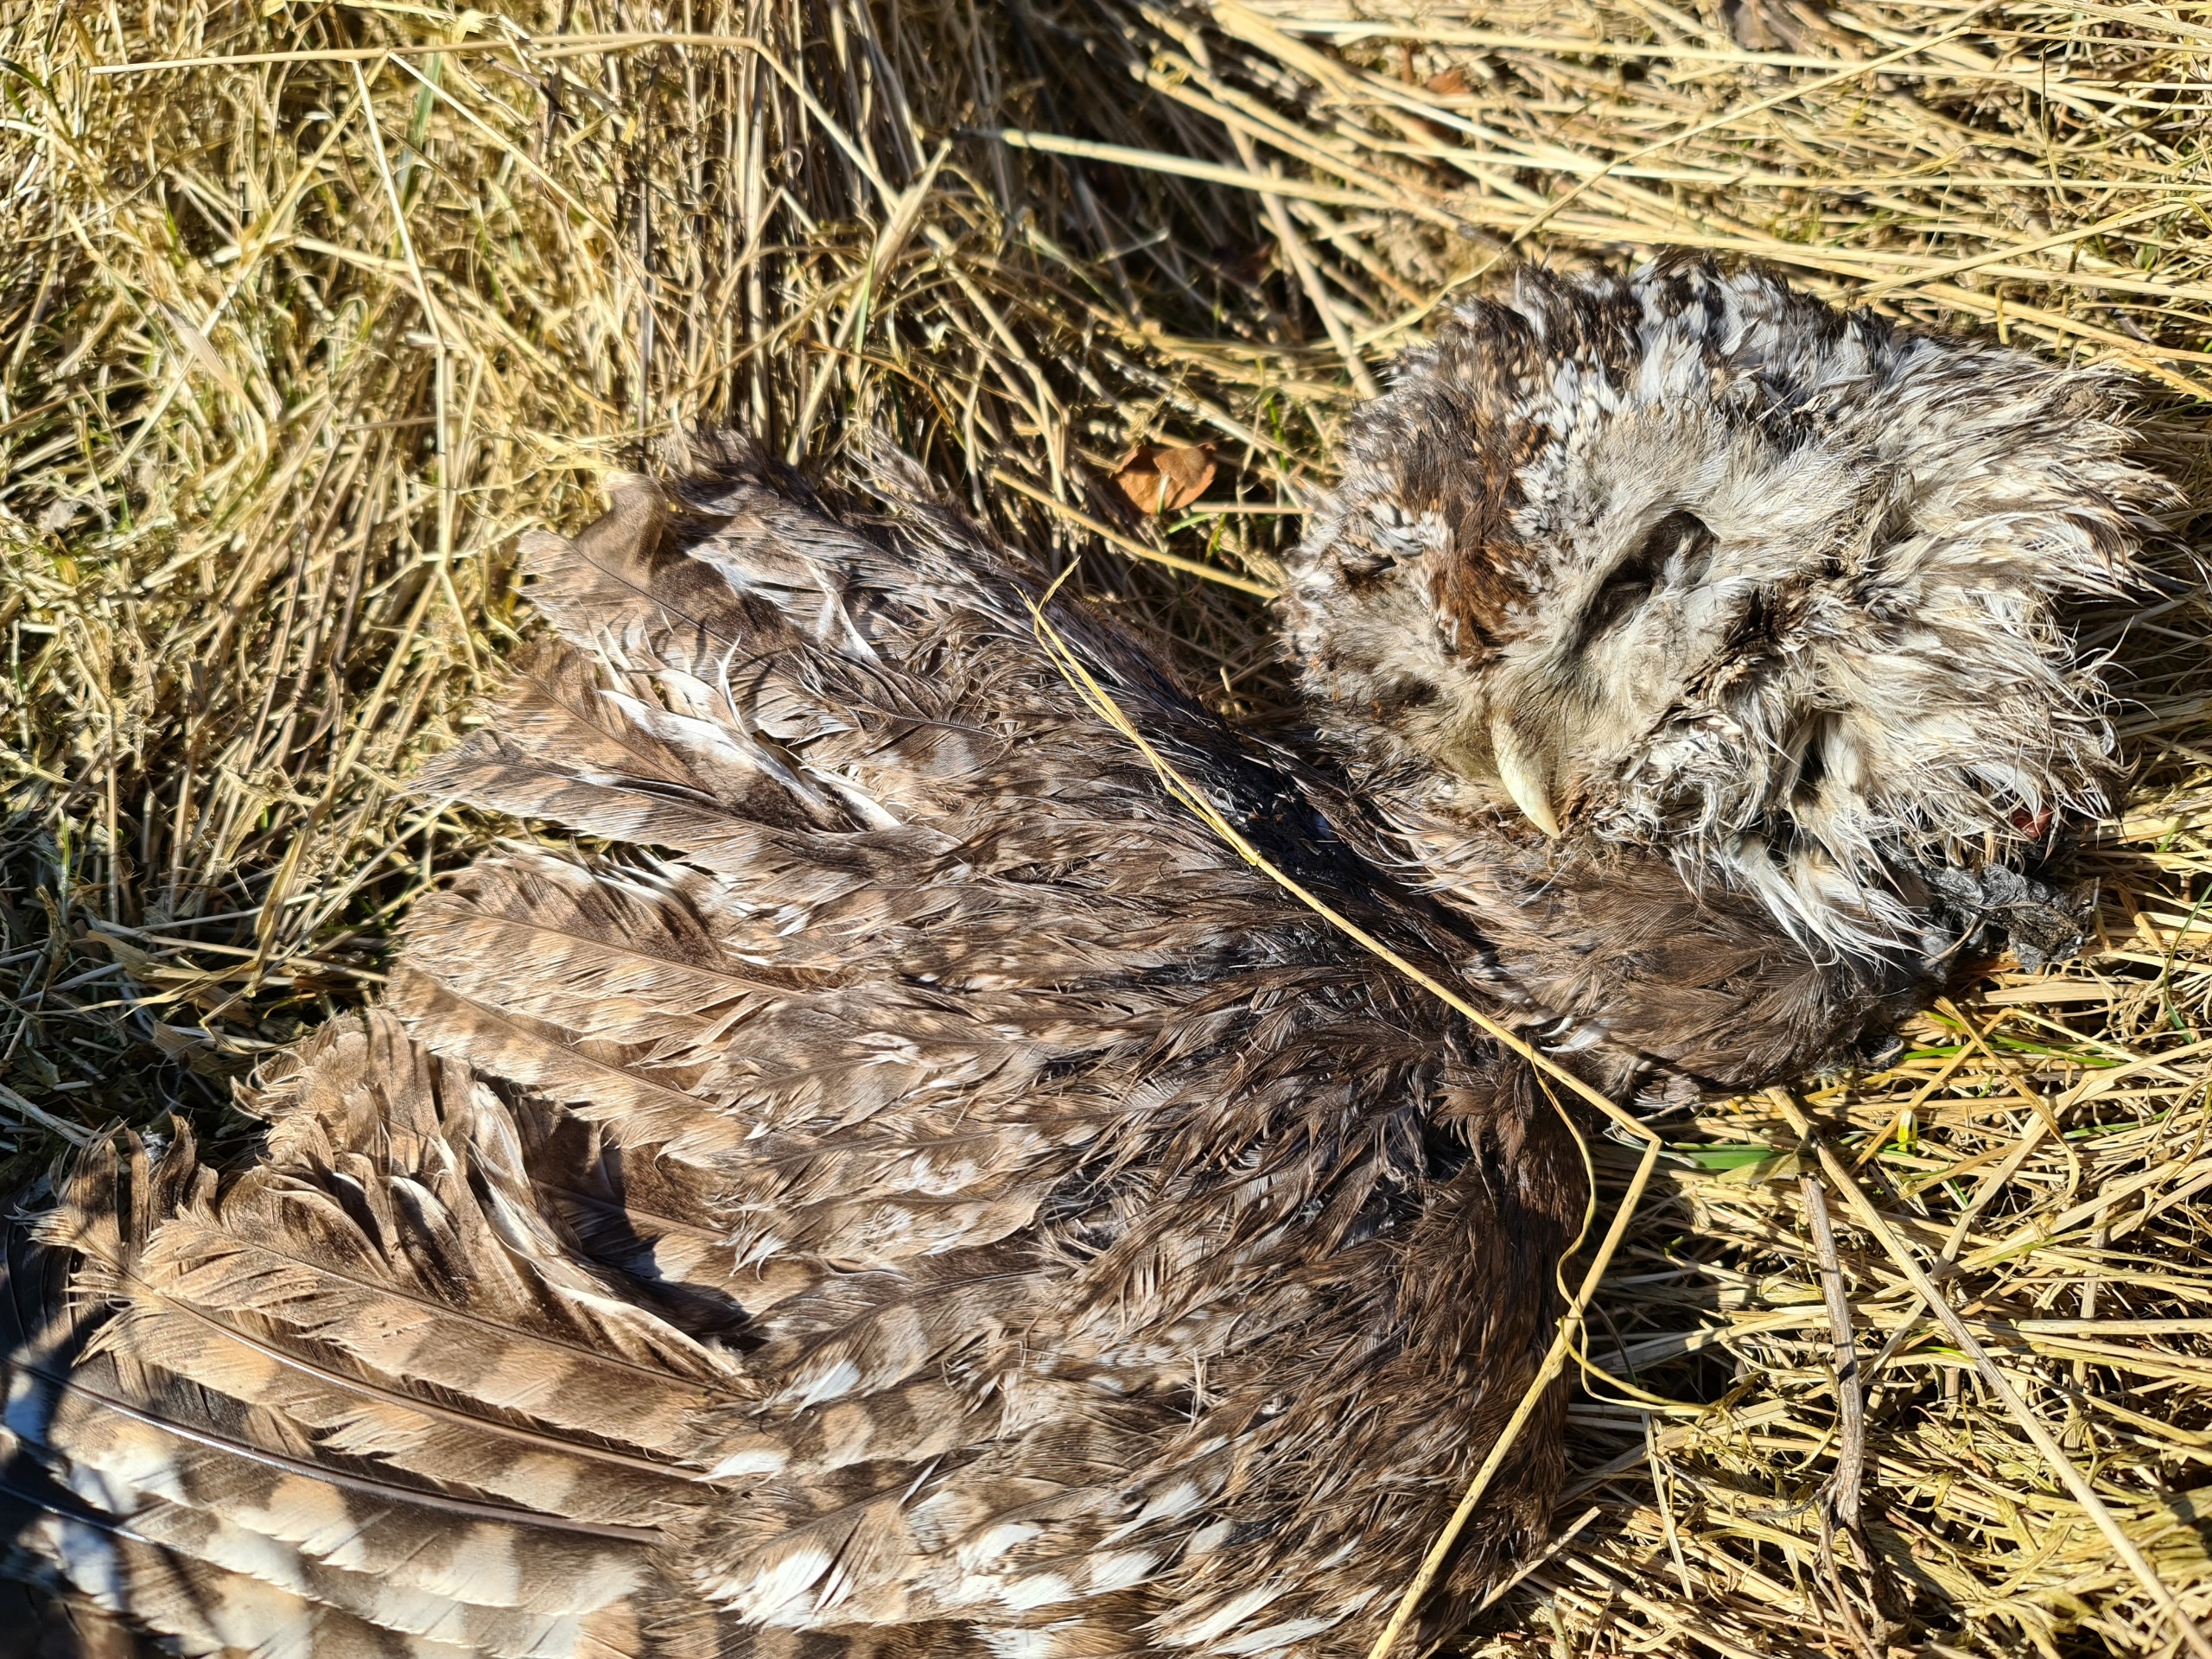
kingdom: Animalia
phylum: Chordata
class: Aves
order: Strigiformes
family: Strigidae
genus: Strix
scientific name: Strix aluco
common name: Natugle
